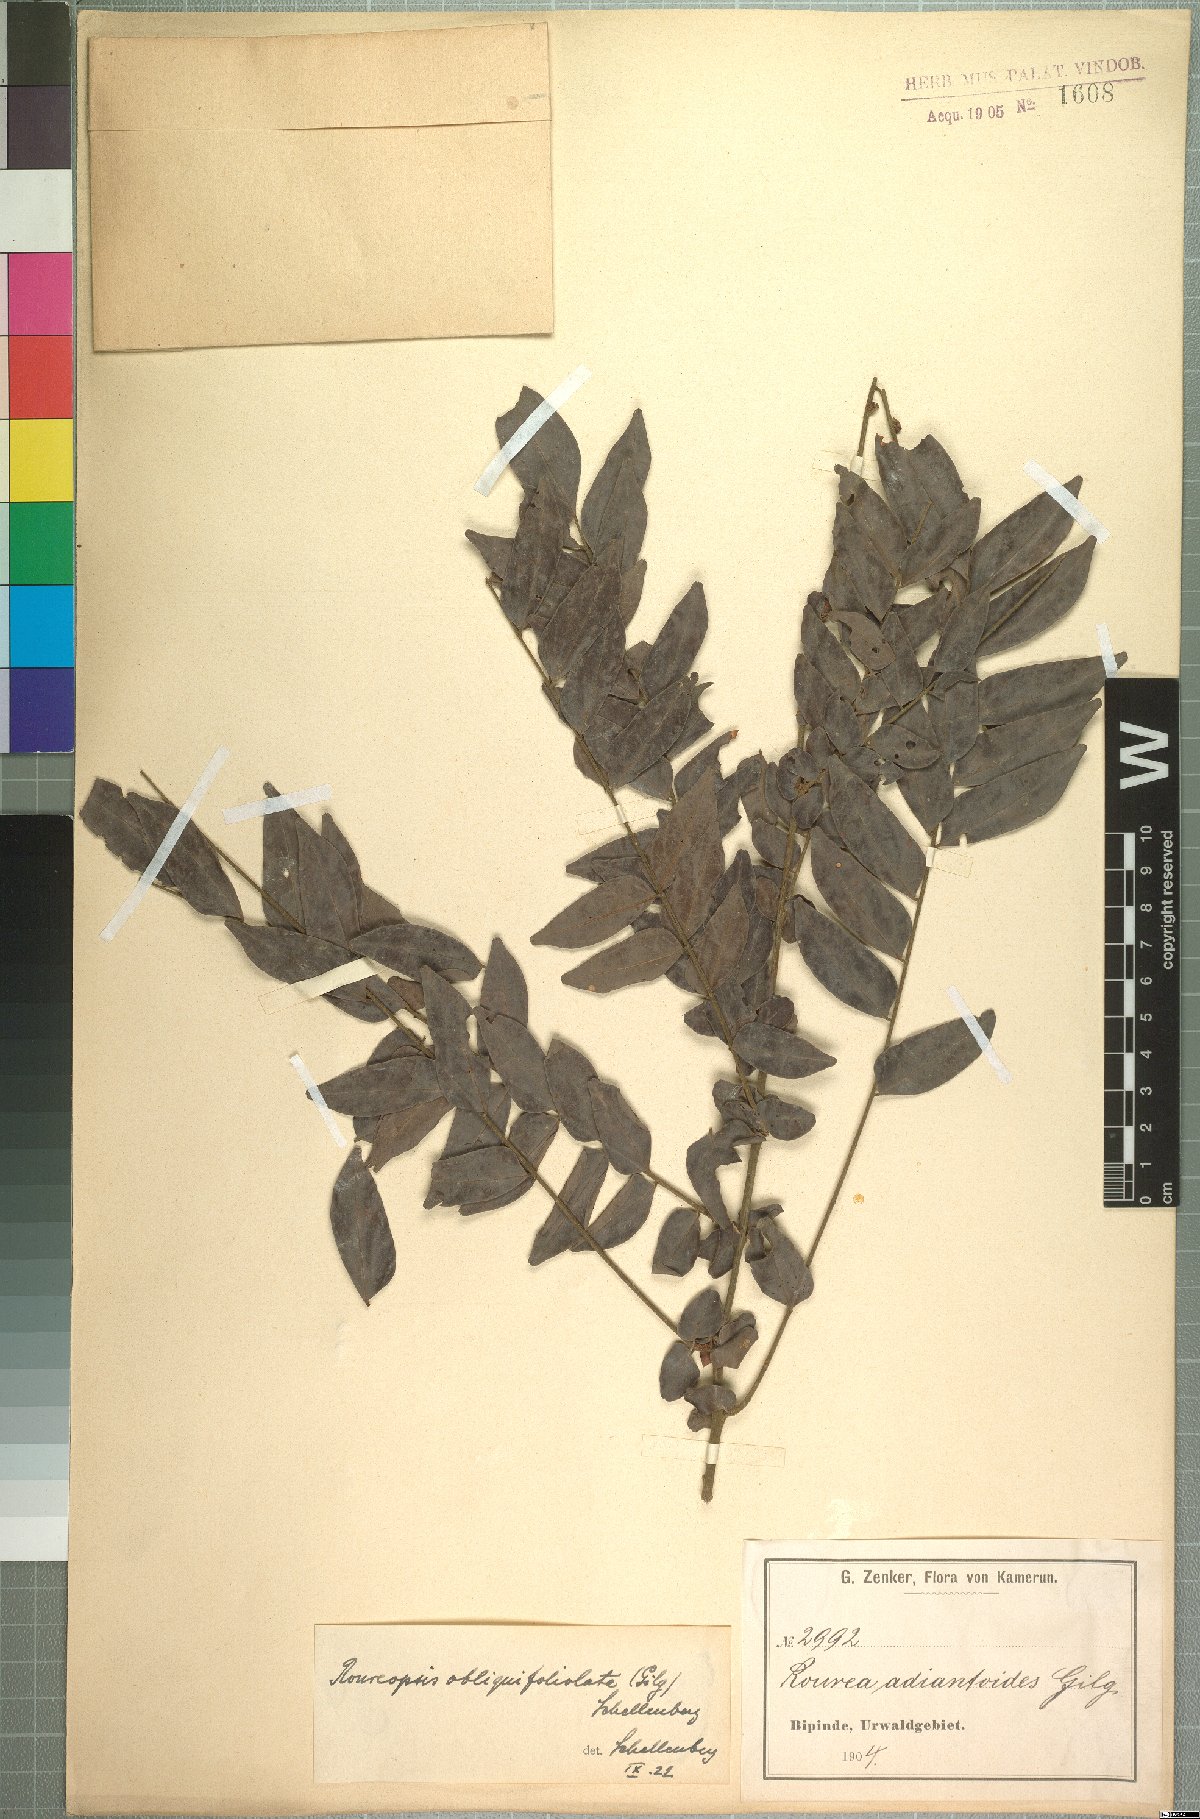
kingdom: Plantae
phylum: Tracheophyta
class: Magnoliopsida
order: Oxalidales
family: Connaraceae
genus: Rourea
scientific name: Rourea obliquifoliolata
